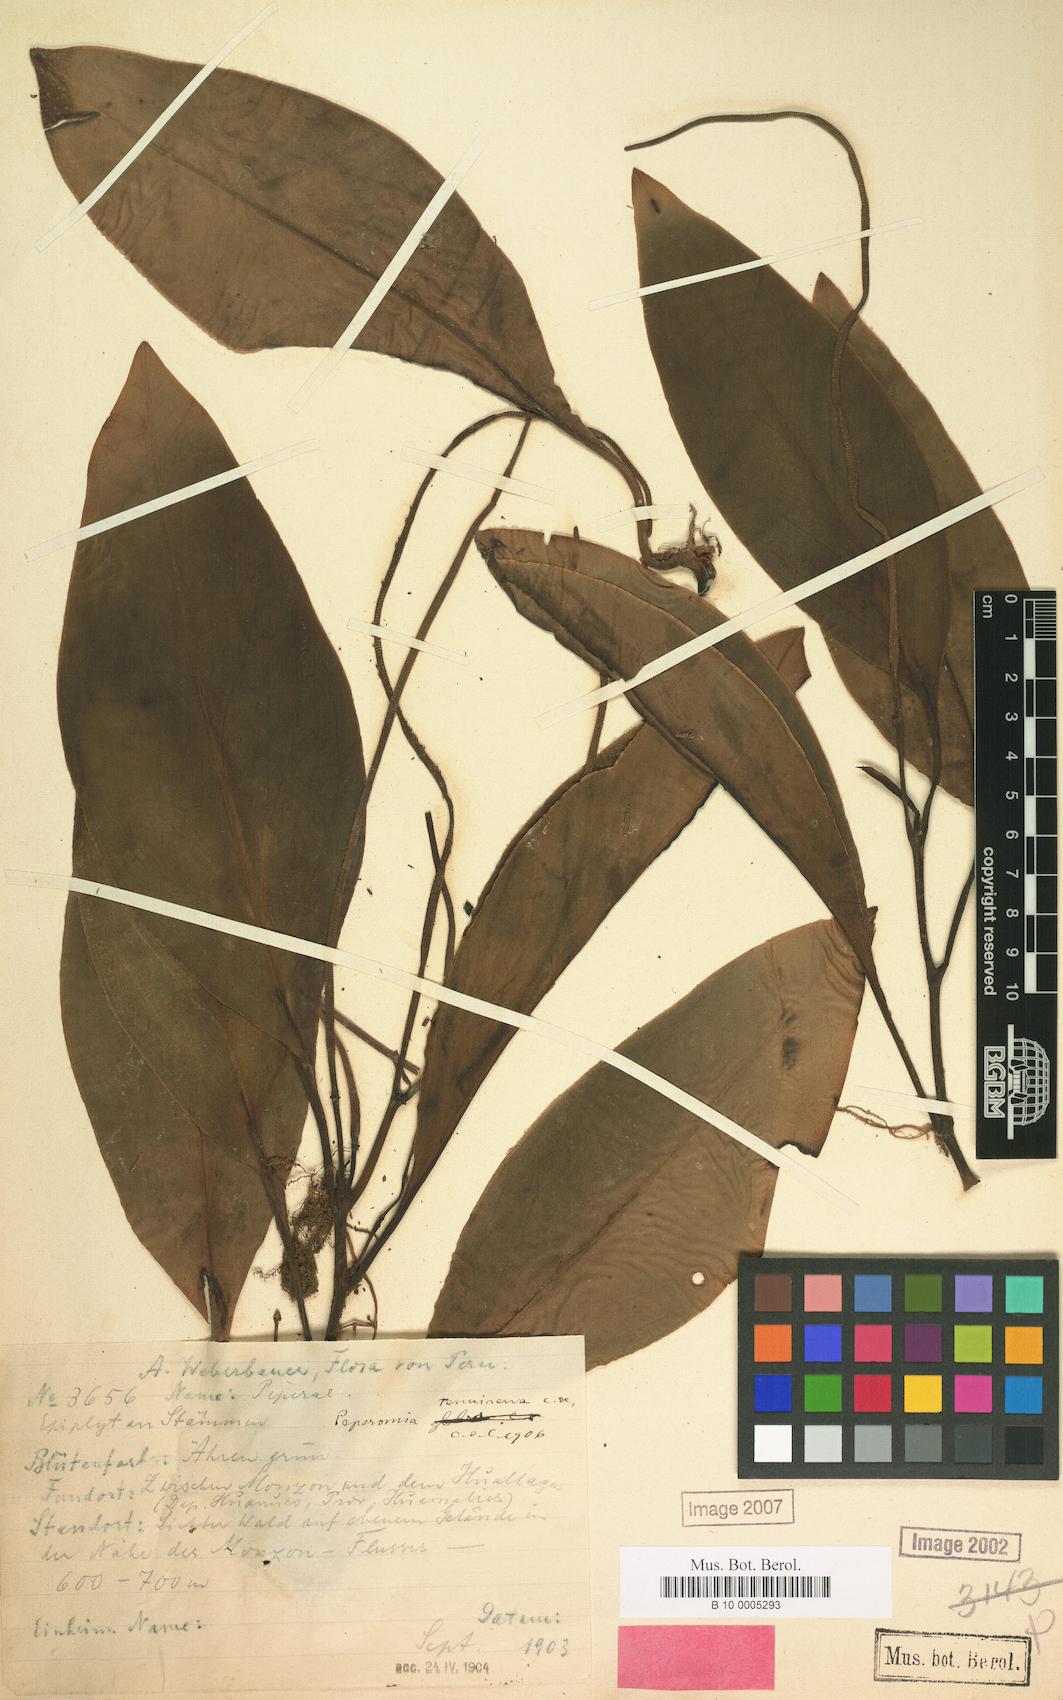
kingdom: Plantae
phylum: Tracheophyta
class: Magnoliopsida
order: Piperales
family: Piperaceae
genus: Peperomia
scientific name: Peperomia tenuiramea
